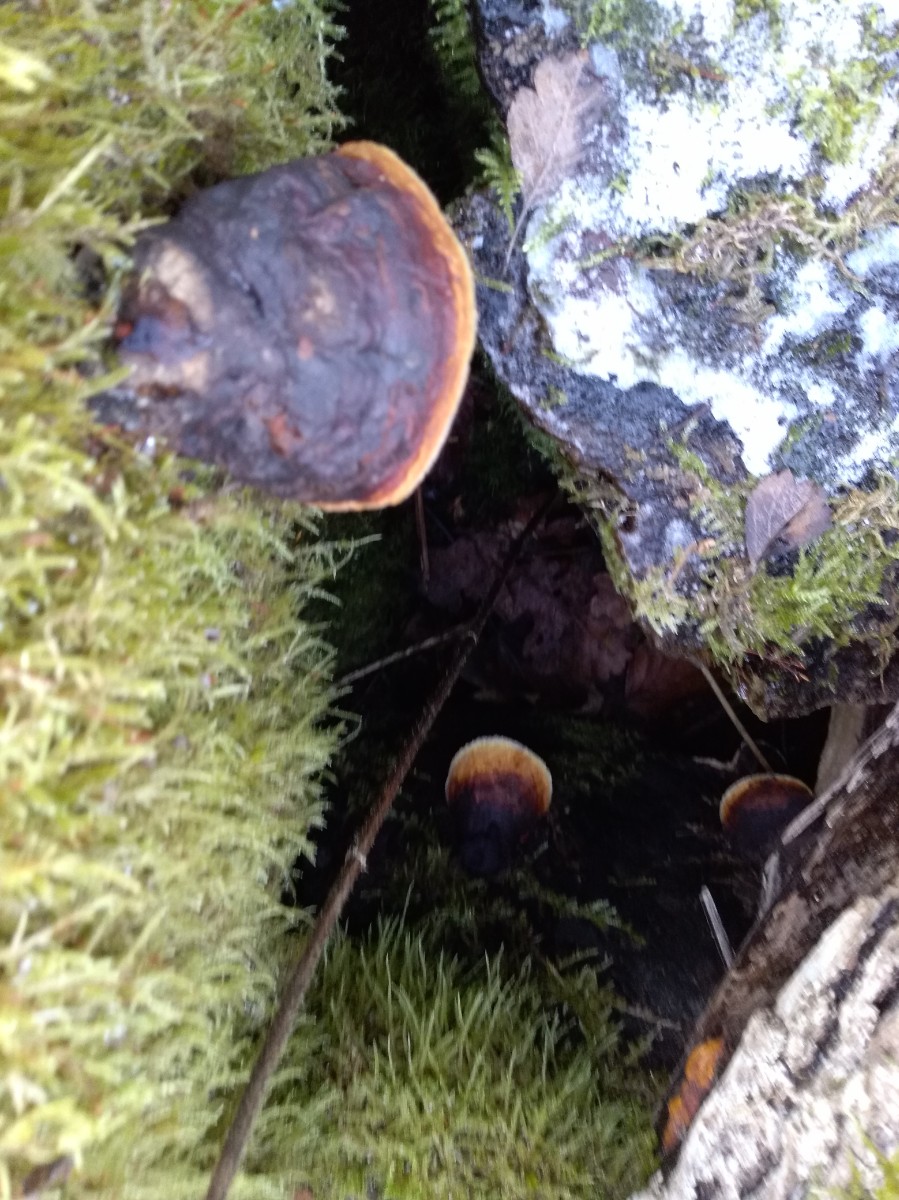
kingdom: Fungi
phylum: Basidiomycota
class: Agaricomycetes
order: Polyporales
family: Fomitopsidaceae
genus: Fomitopsis
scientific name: Fomitopsis pinicola
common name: randbæltet hovporesvamp
